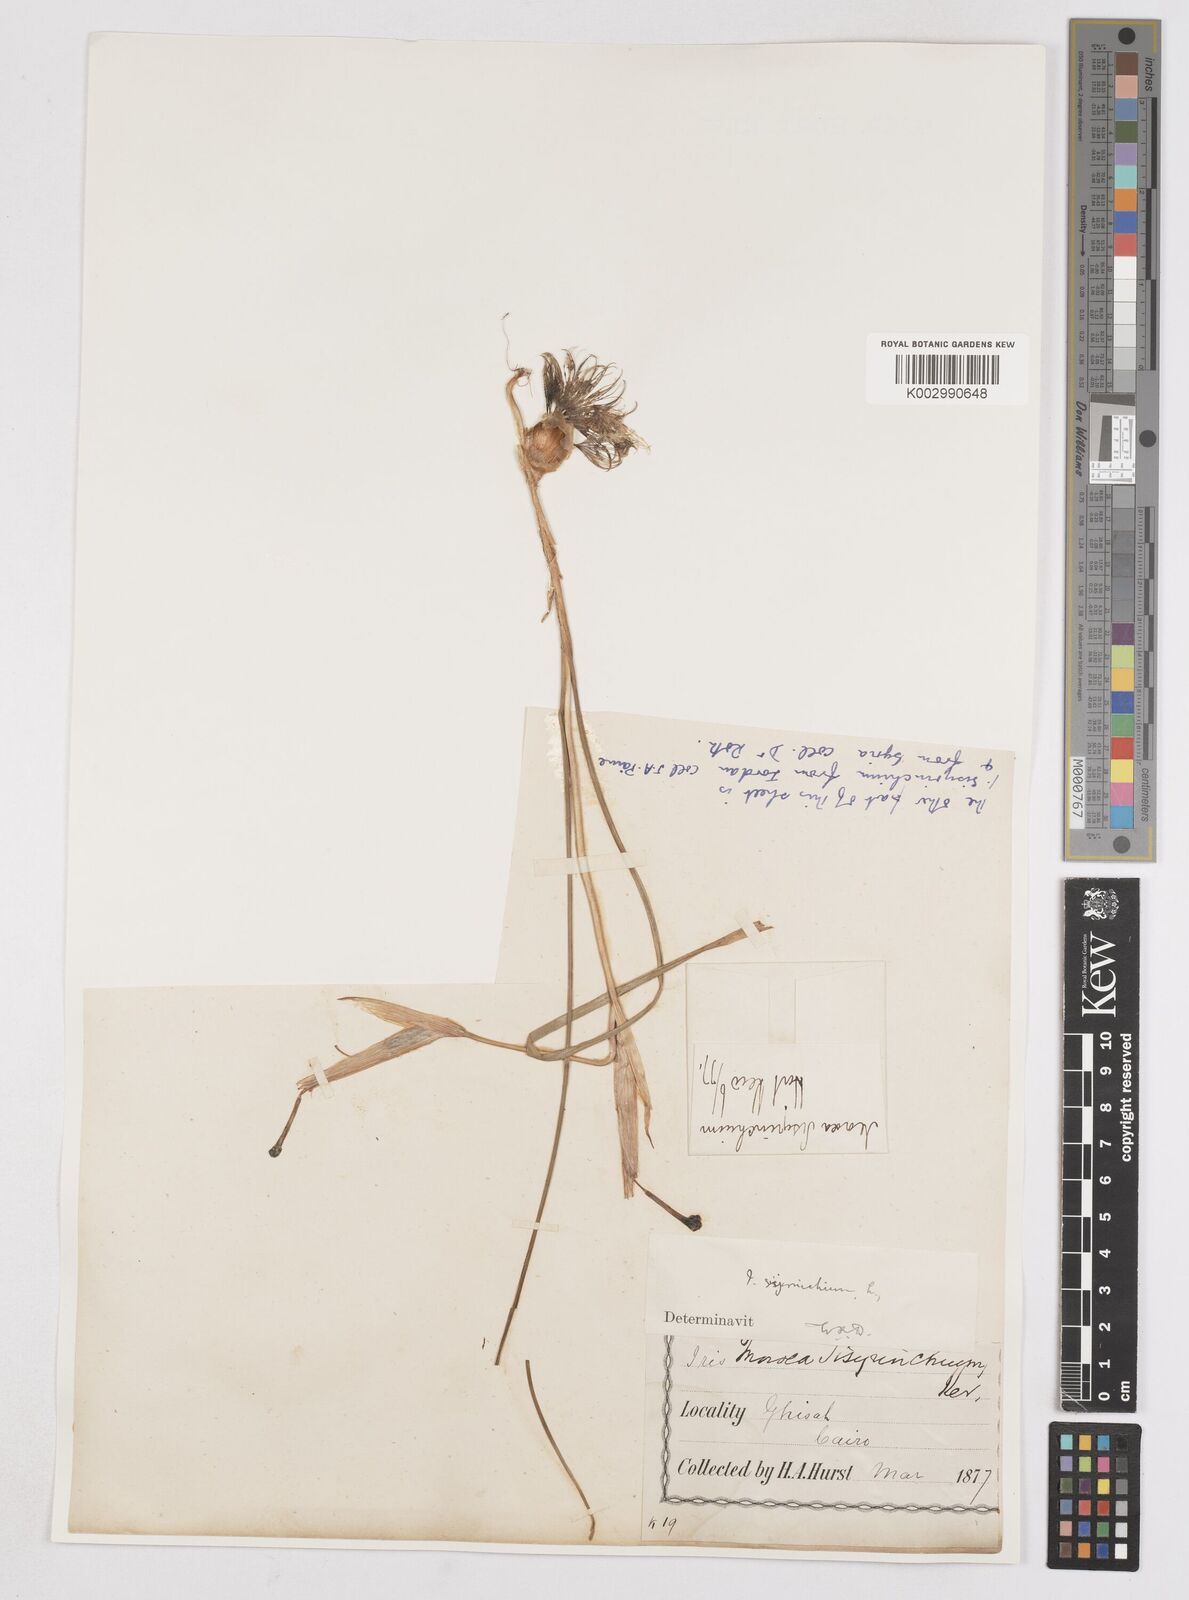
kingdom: Plantae
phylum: Tracheophyta
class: Liliopsida
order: Asparagales
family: Iridaceae
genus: Moraea
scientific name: Moraea sisyrinchium
